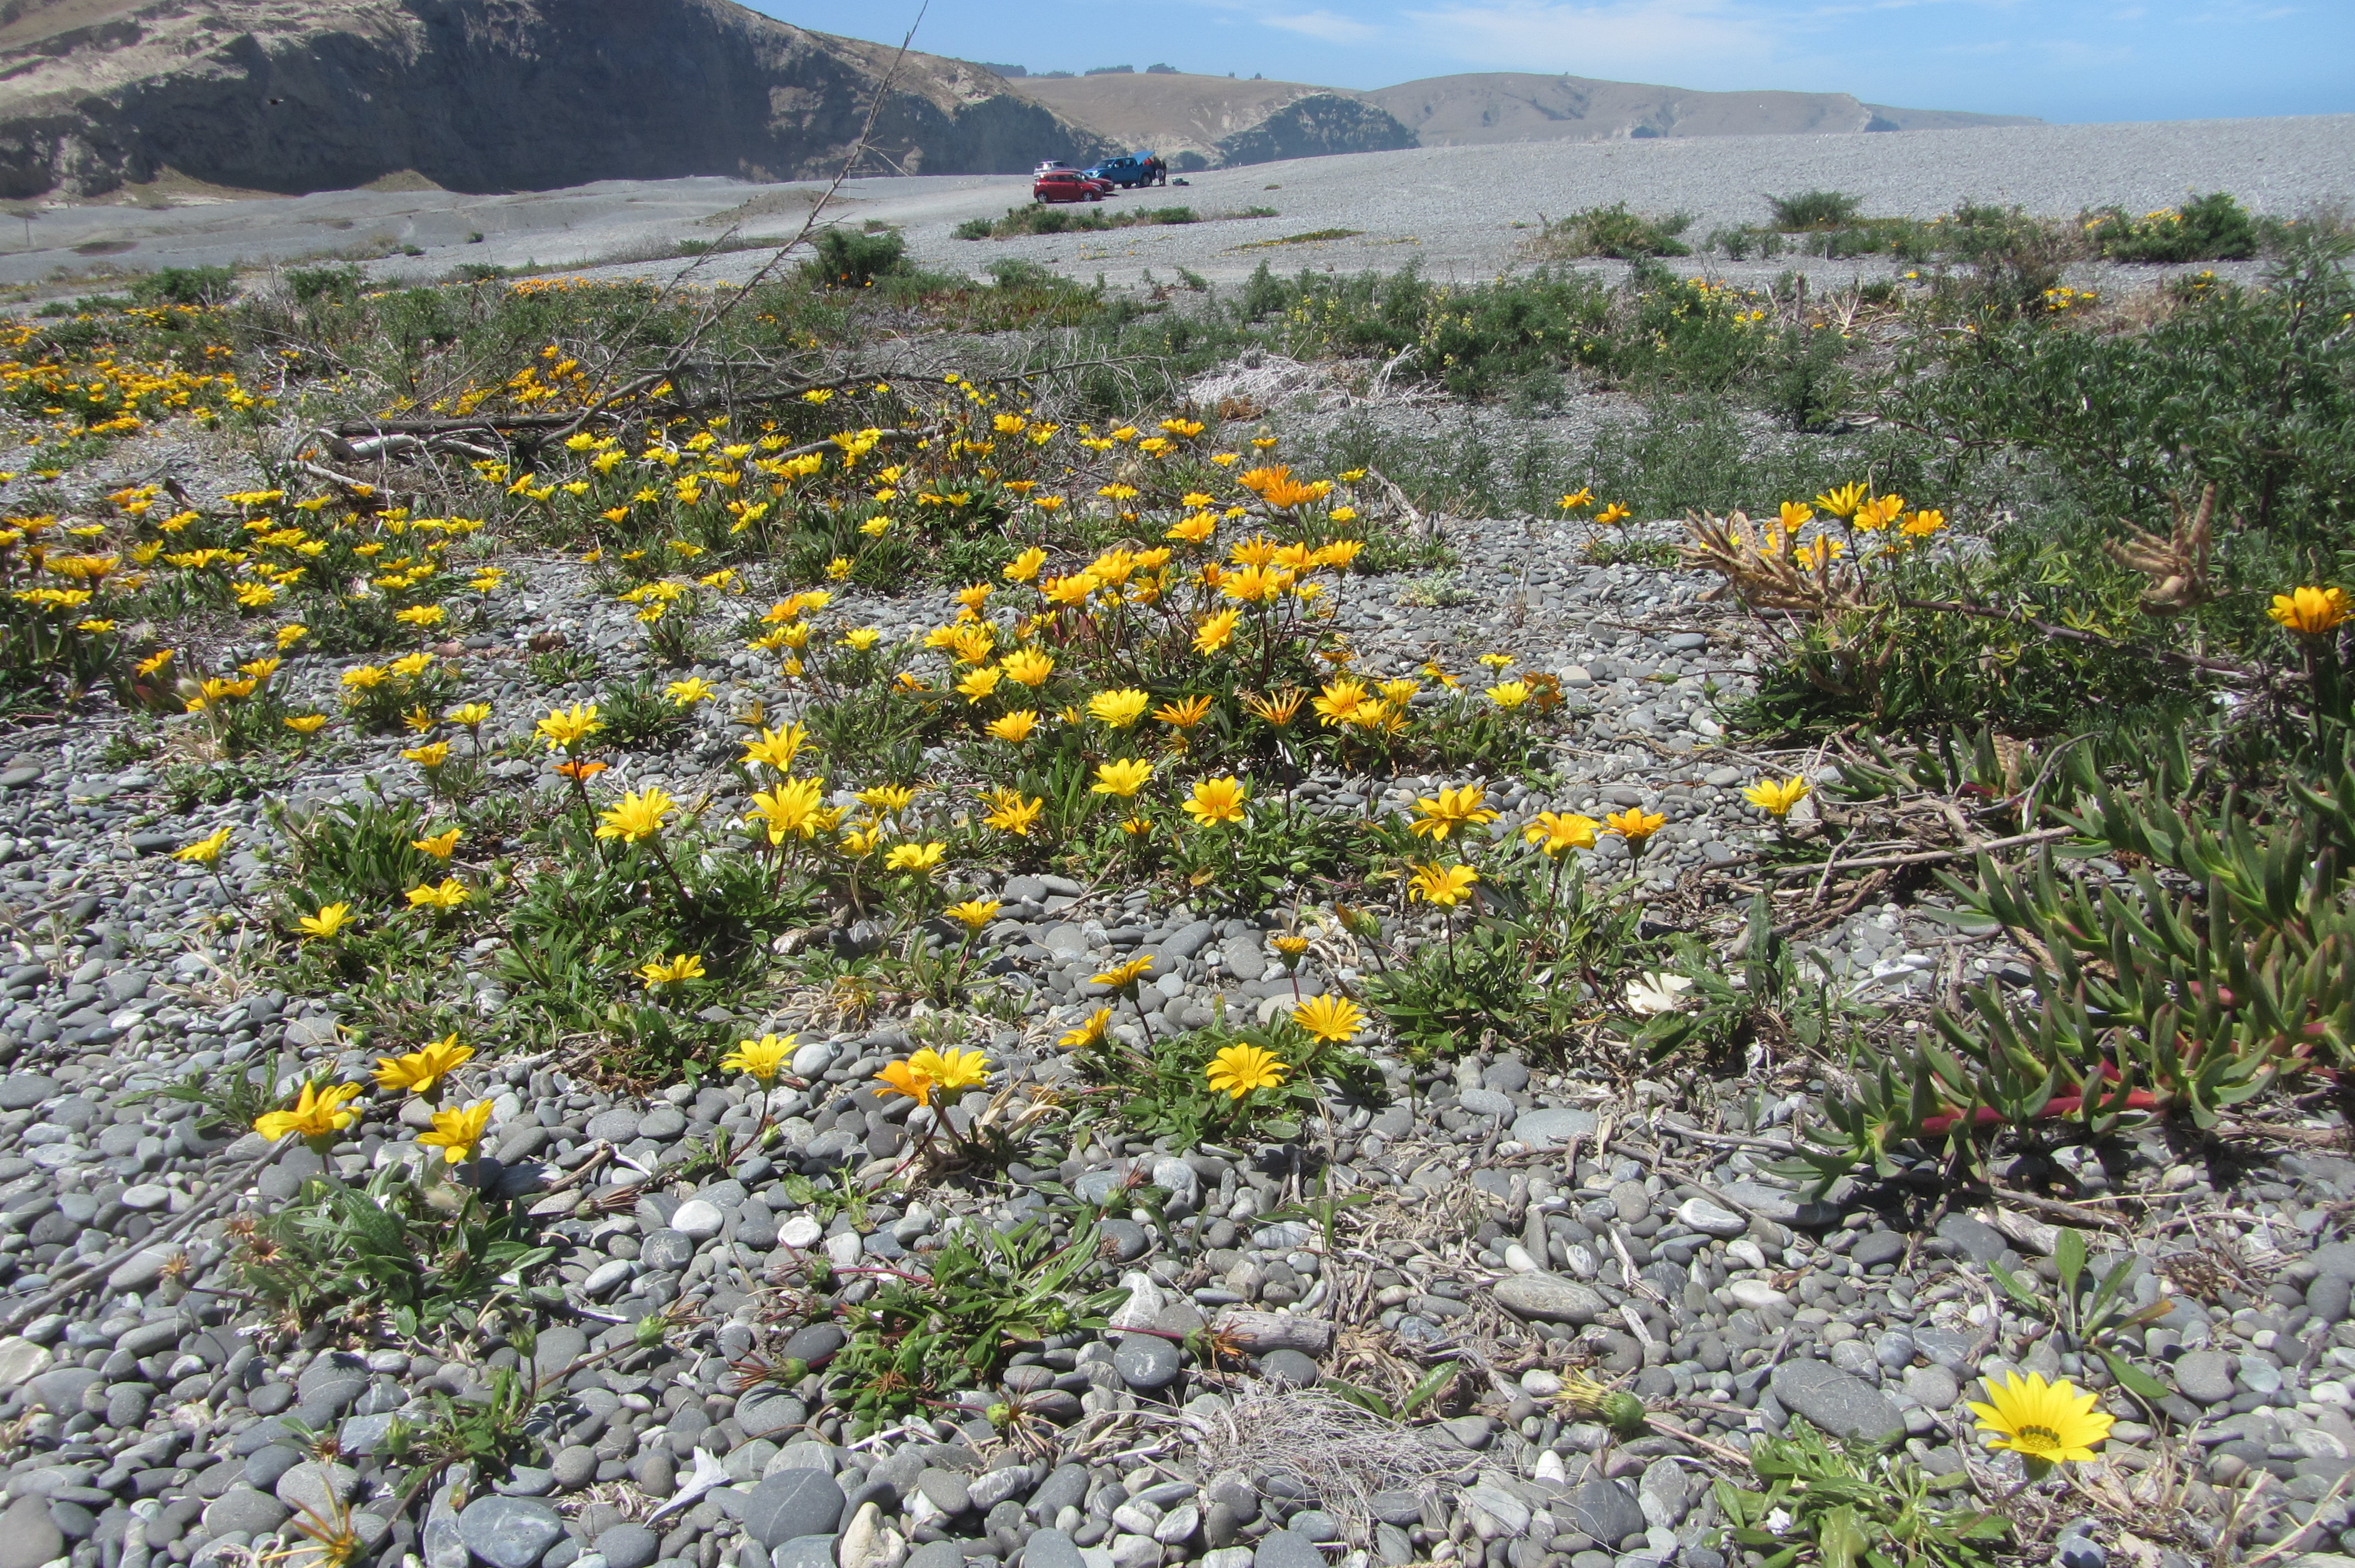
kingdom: Plantae
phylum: Tracheophyta
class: Magnoliopsida
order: Asterales
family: Asteraceae
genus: Gazania
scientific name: Gazania rigens
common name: Treasureflower
